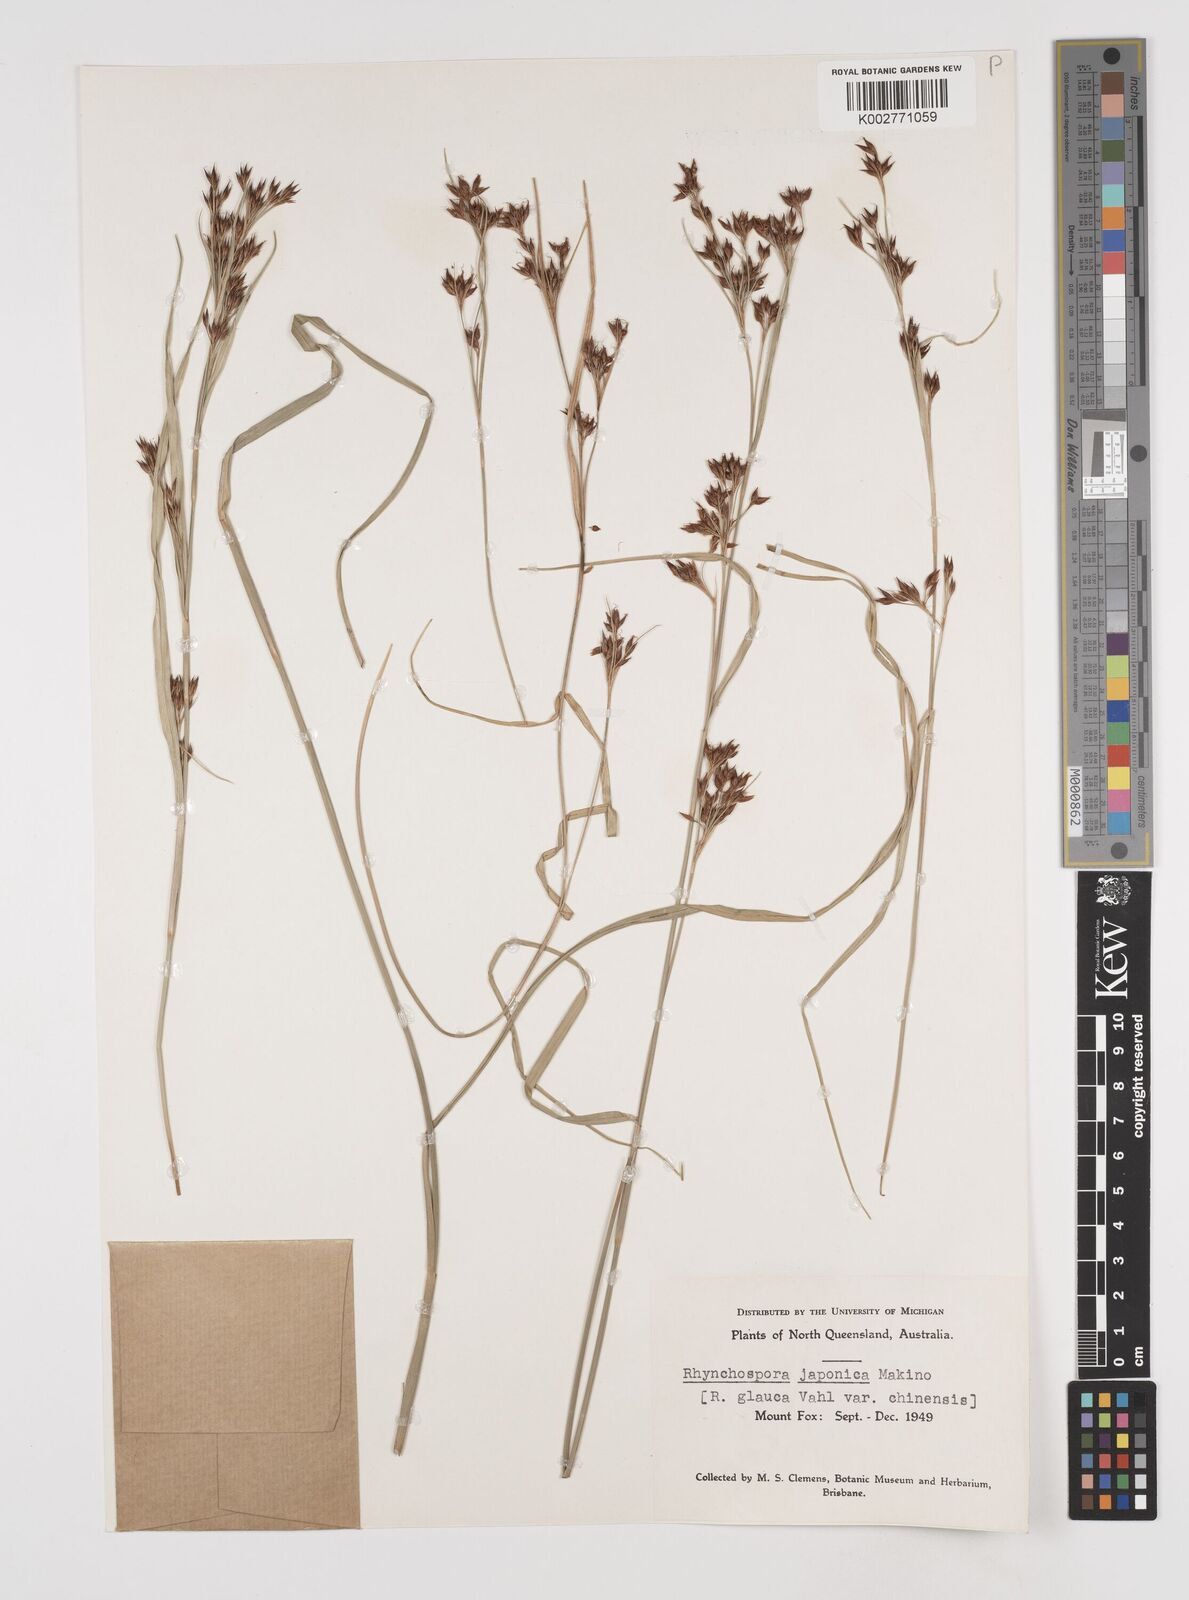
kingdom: Plantae
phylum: Tracheophyta
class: Liliopsida
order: Poales
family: Cyperaceae
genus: Rhynchospora
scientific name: Rhynchospora rugosa
